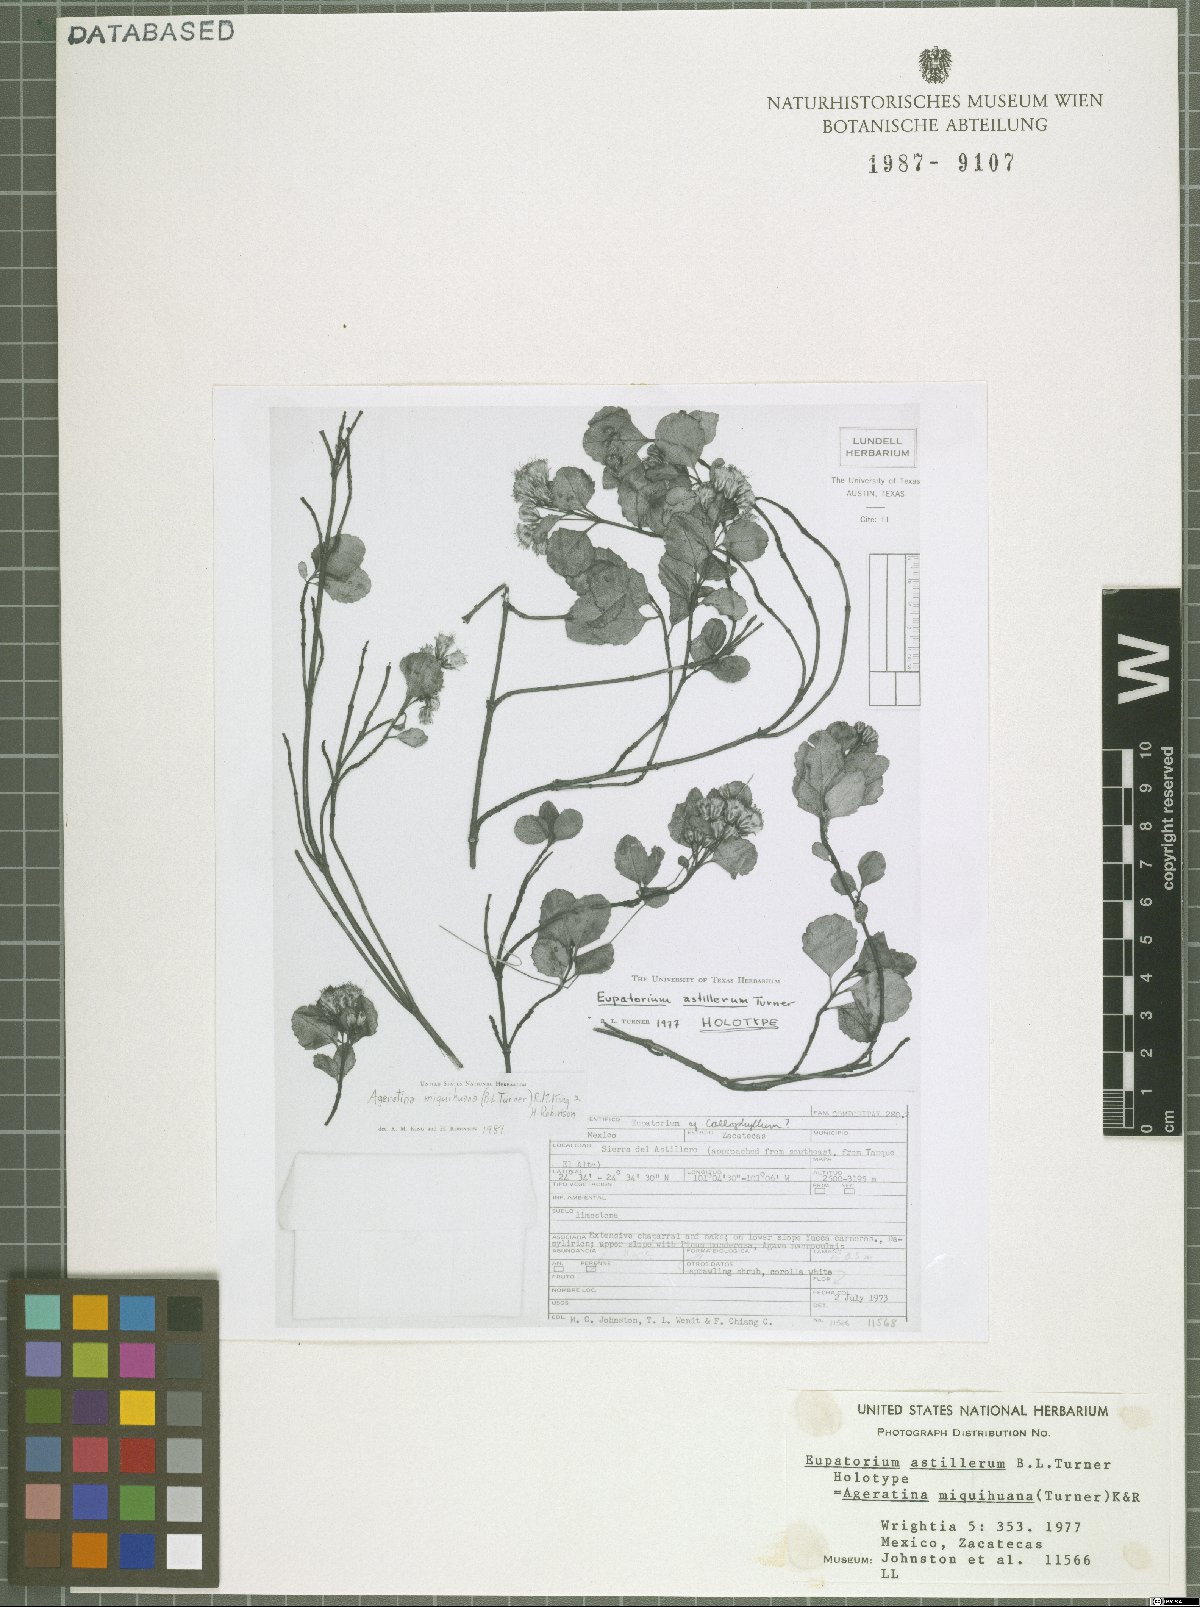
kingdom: Plantae
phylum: Tracheophyta
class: Magnoliopsida
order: Asterales
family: Asteraceae
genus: Ageratina
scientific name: Ageratina miquihuana
